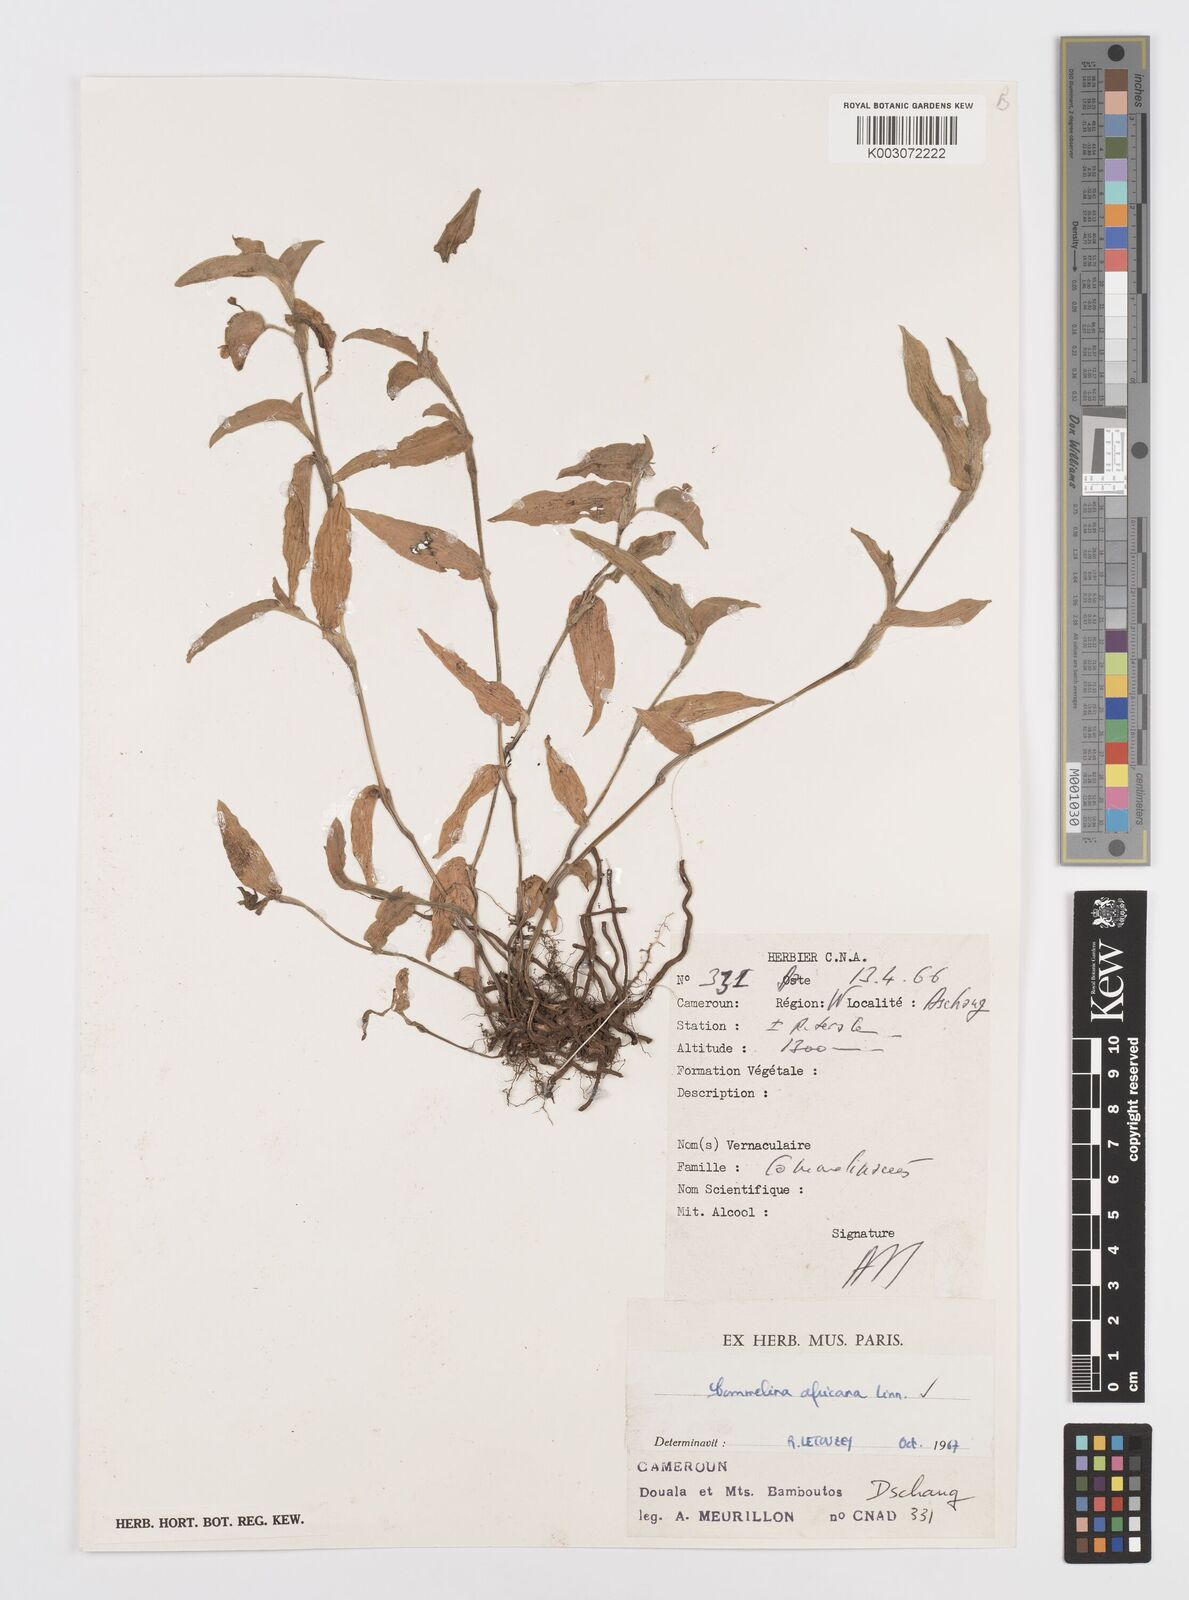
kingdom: Plantae
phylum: Tracheophyta
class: Liliopsida
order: Commelinales
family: Commelinaceae
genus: Commelina
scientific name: Commelina africana
